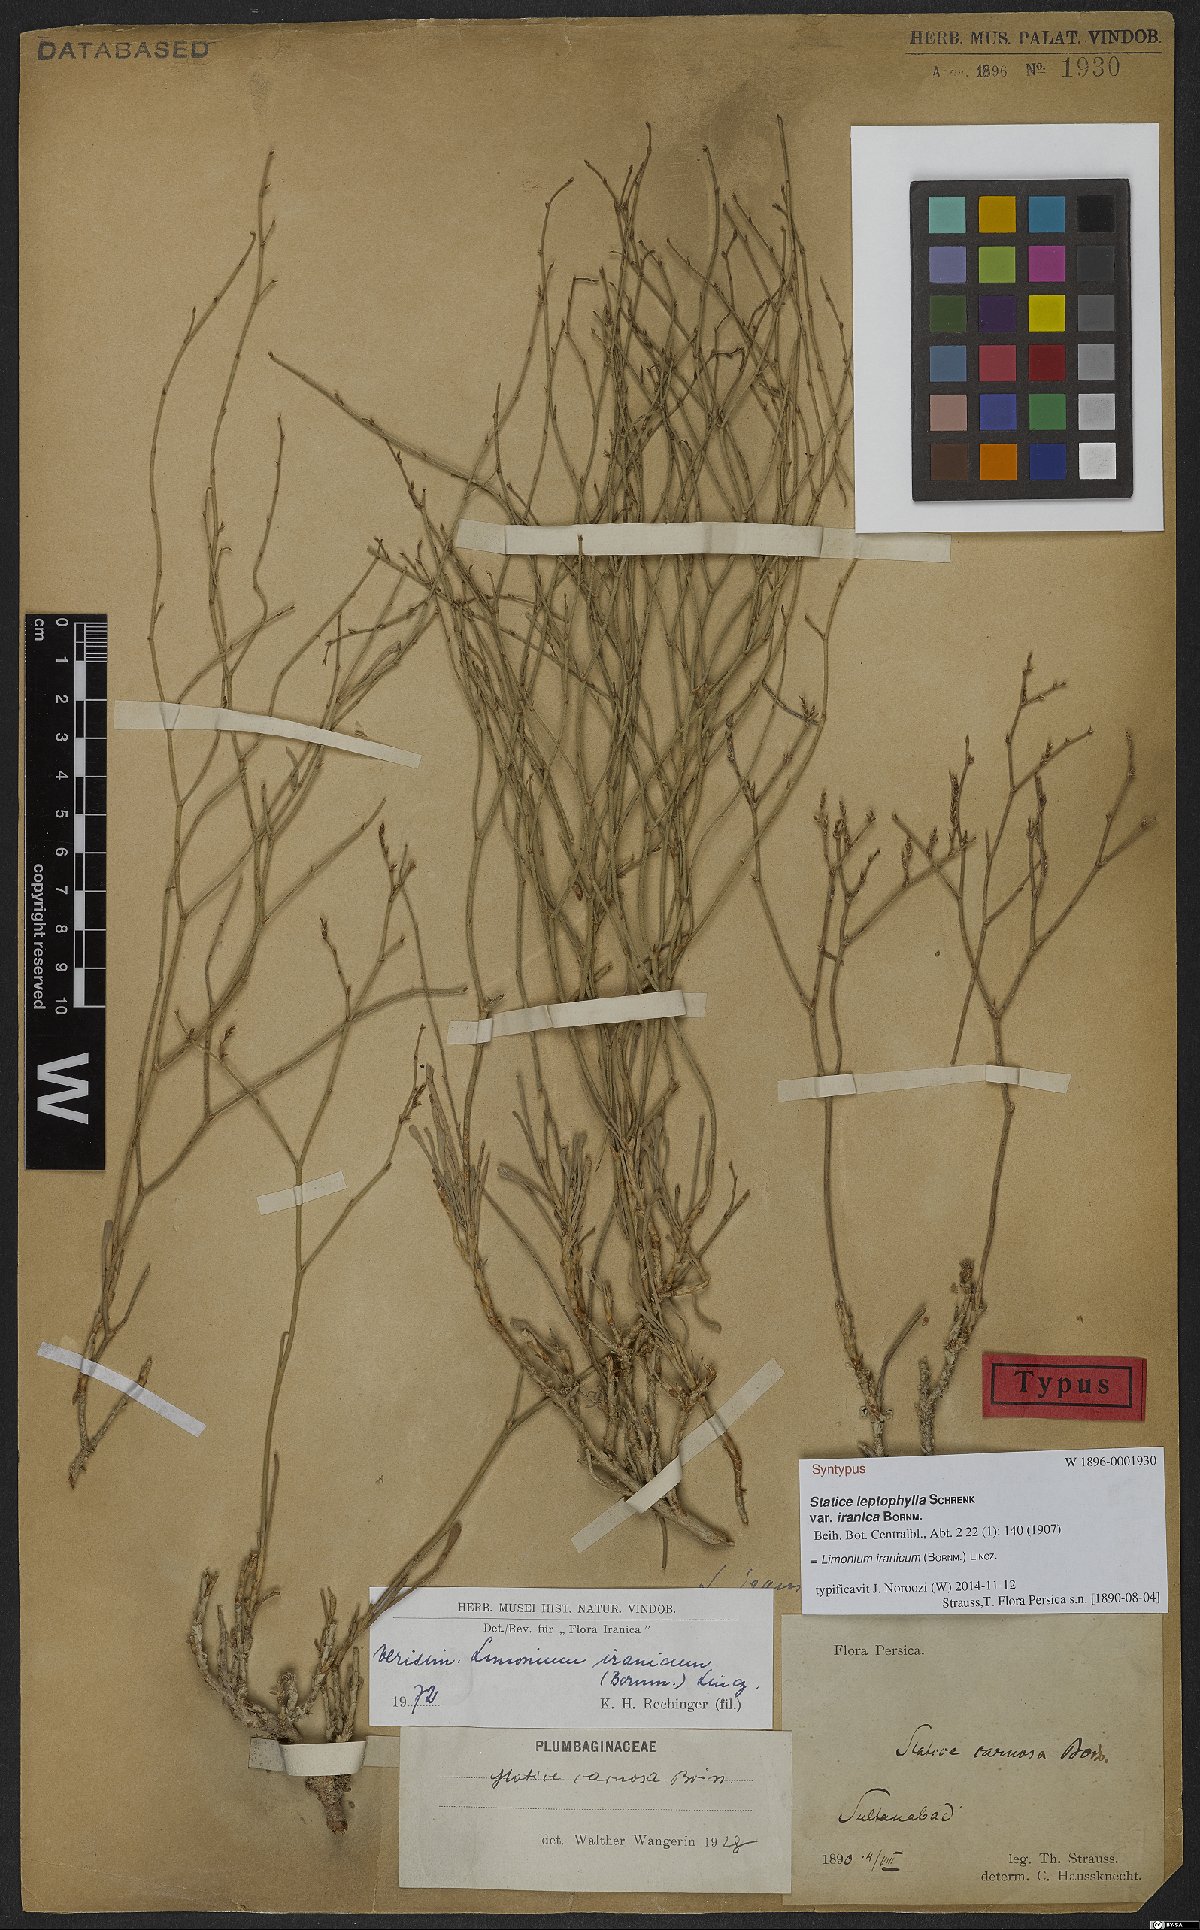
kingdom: Plantae
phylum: Tracheophyta
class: Magnoliopsida
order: Caryophyllales
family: Plumbaginaceae
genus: Limonium
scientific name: Limonium iranicum
